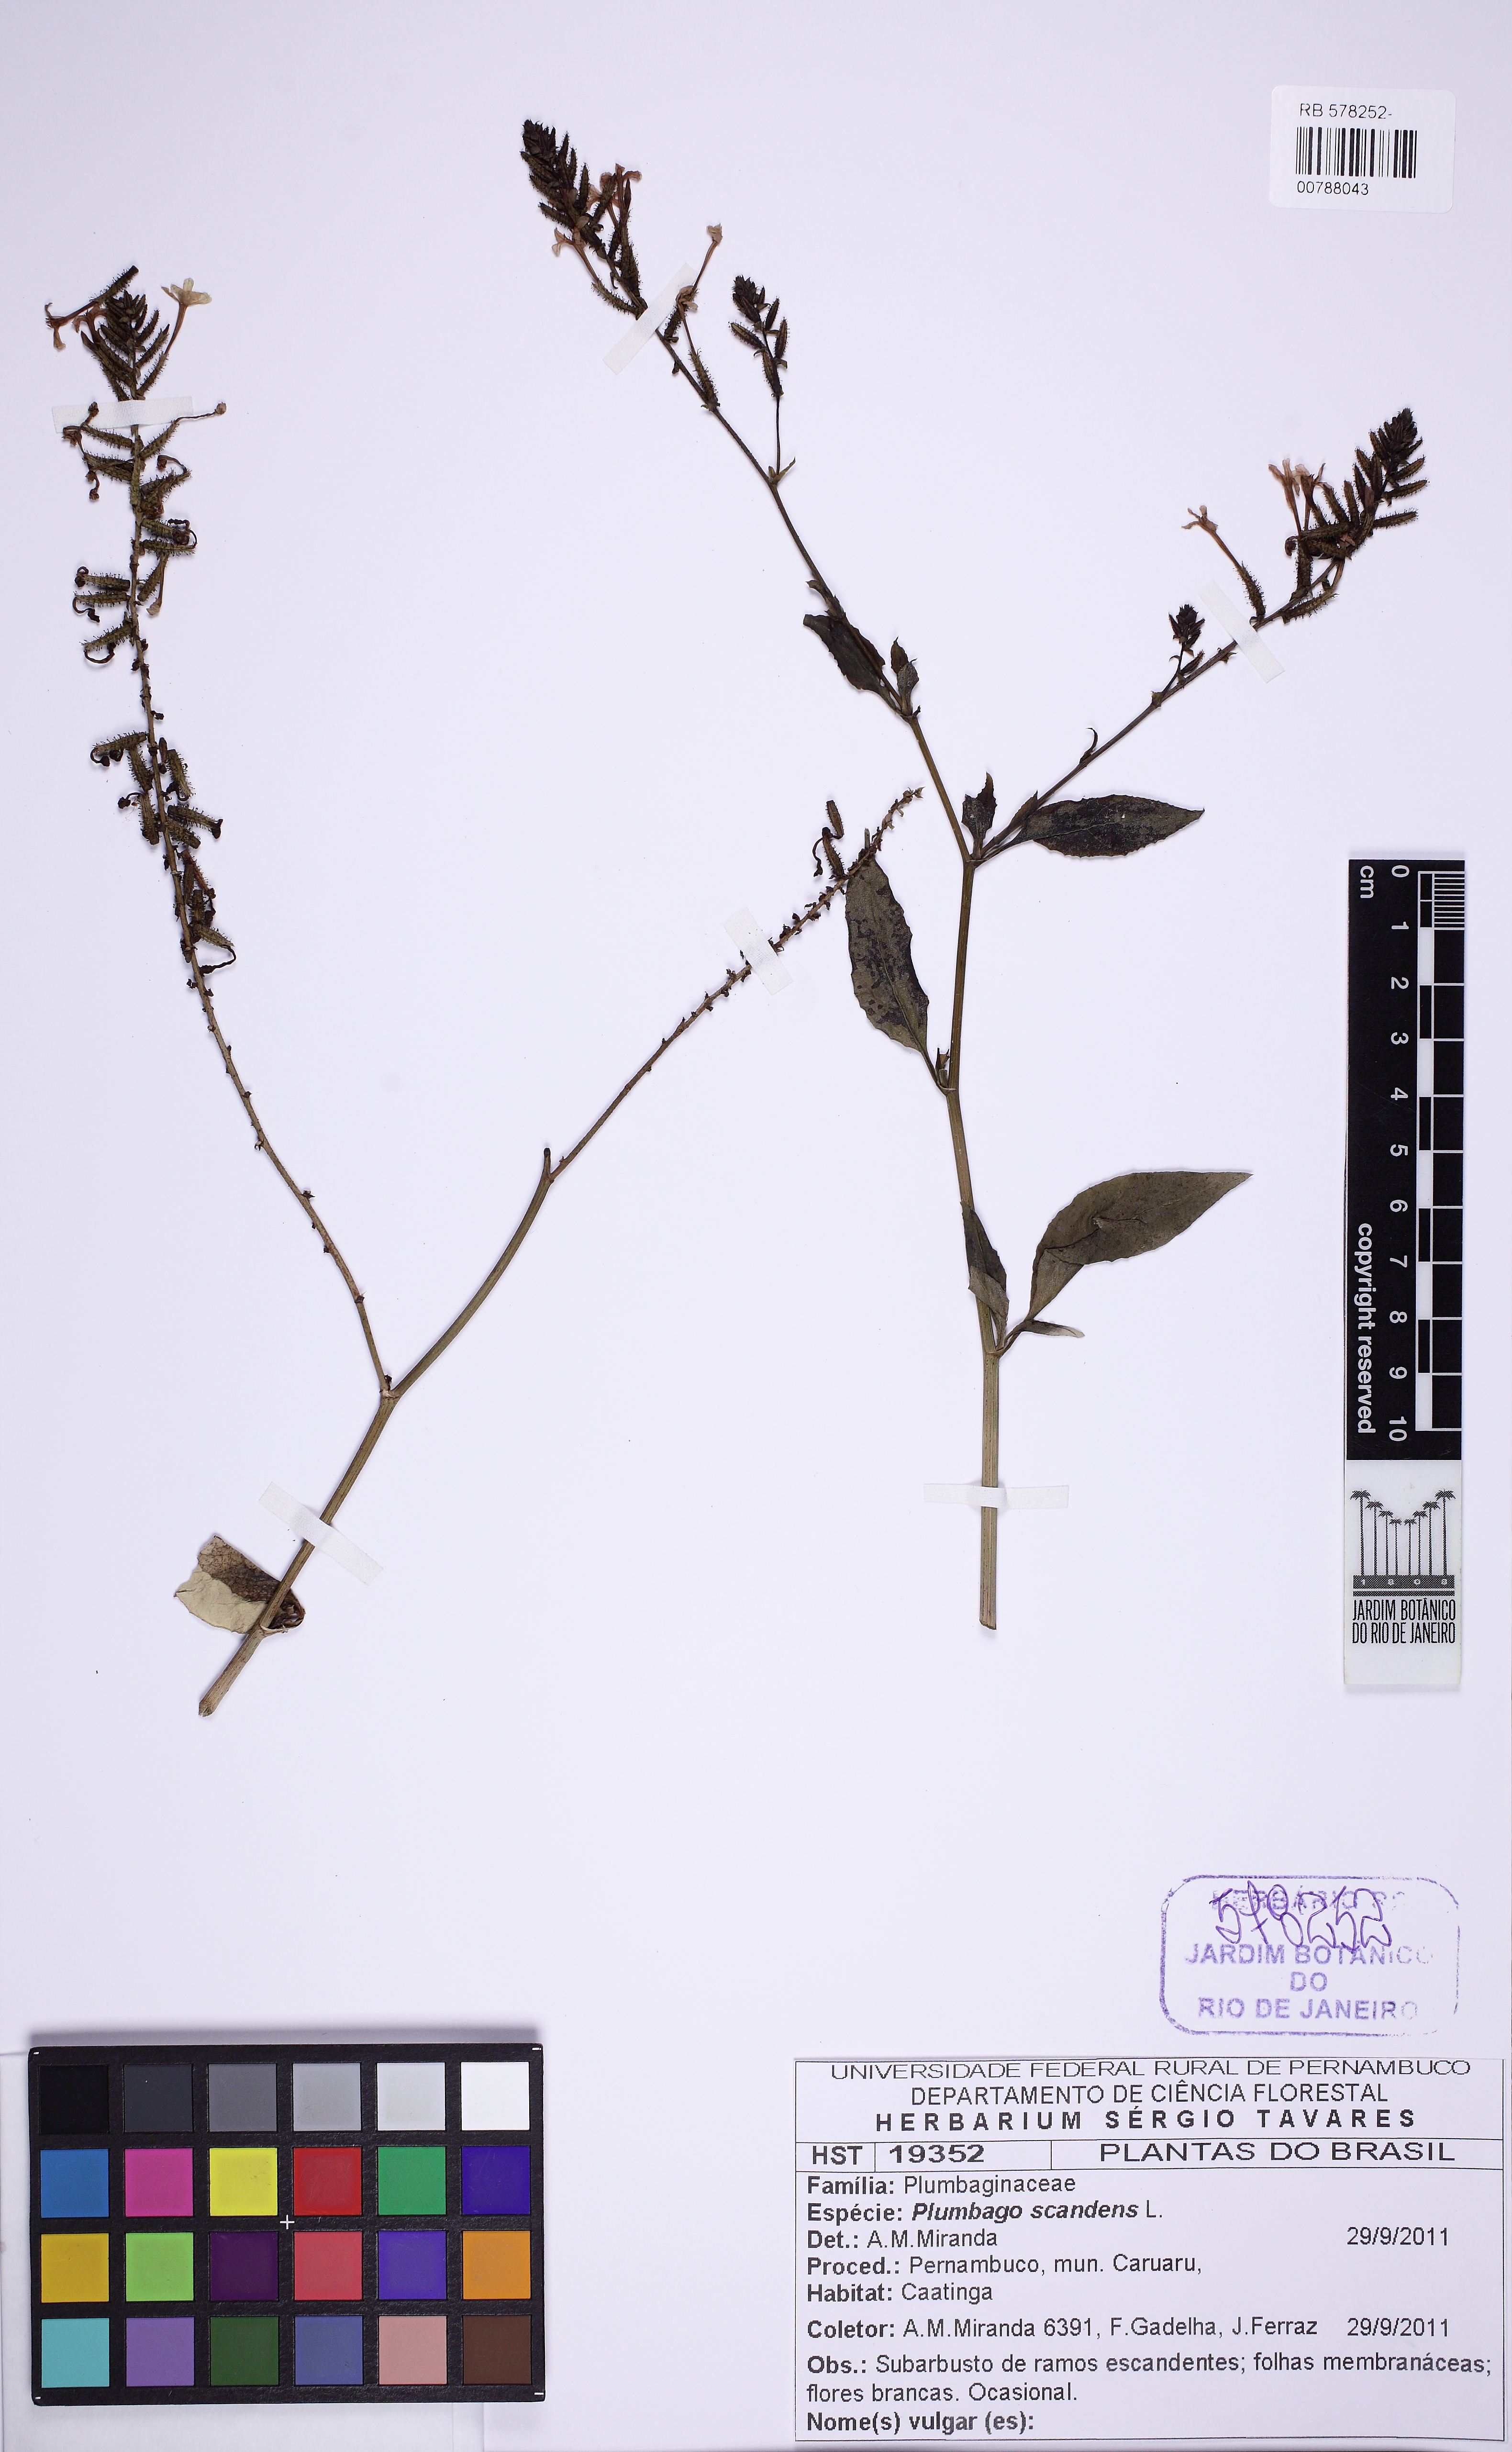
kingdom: Plantae
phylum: Tracheophyta
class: Magnoliopsida
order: Caryophyllales
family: Plumbaginaceae
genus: Plumbago
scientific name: Plumbago zeylanica
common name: Doctorbush
